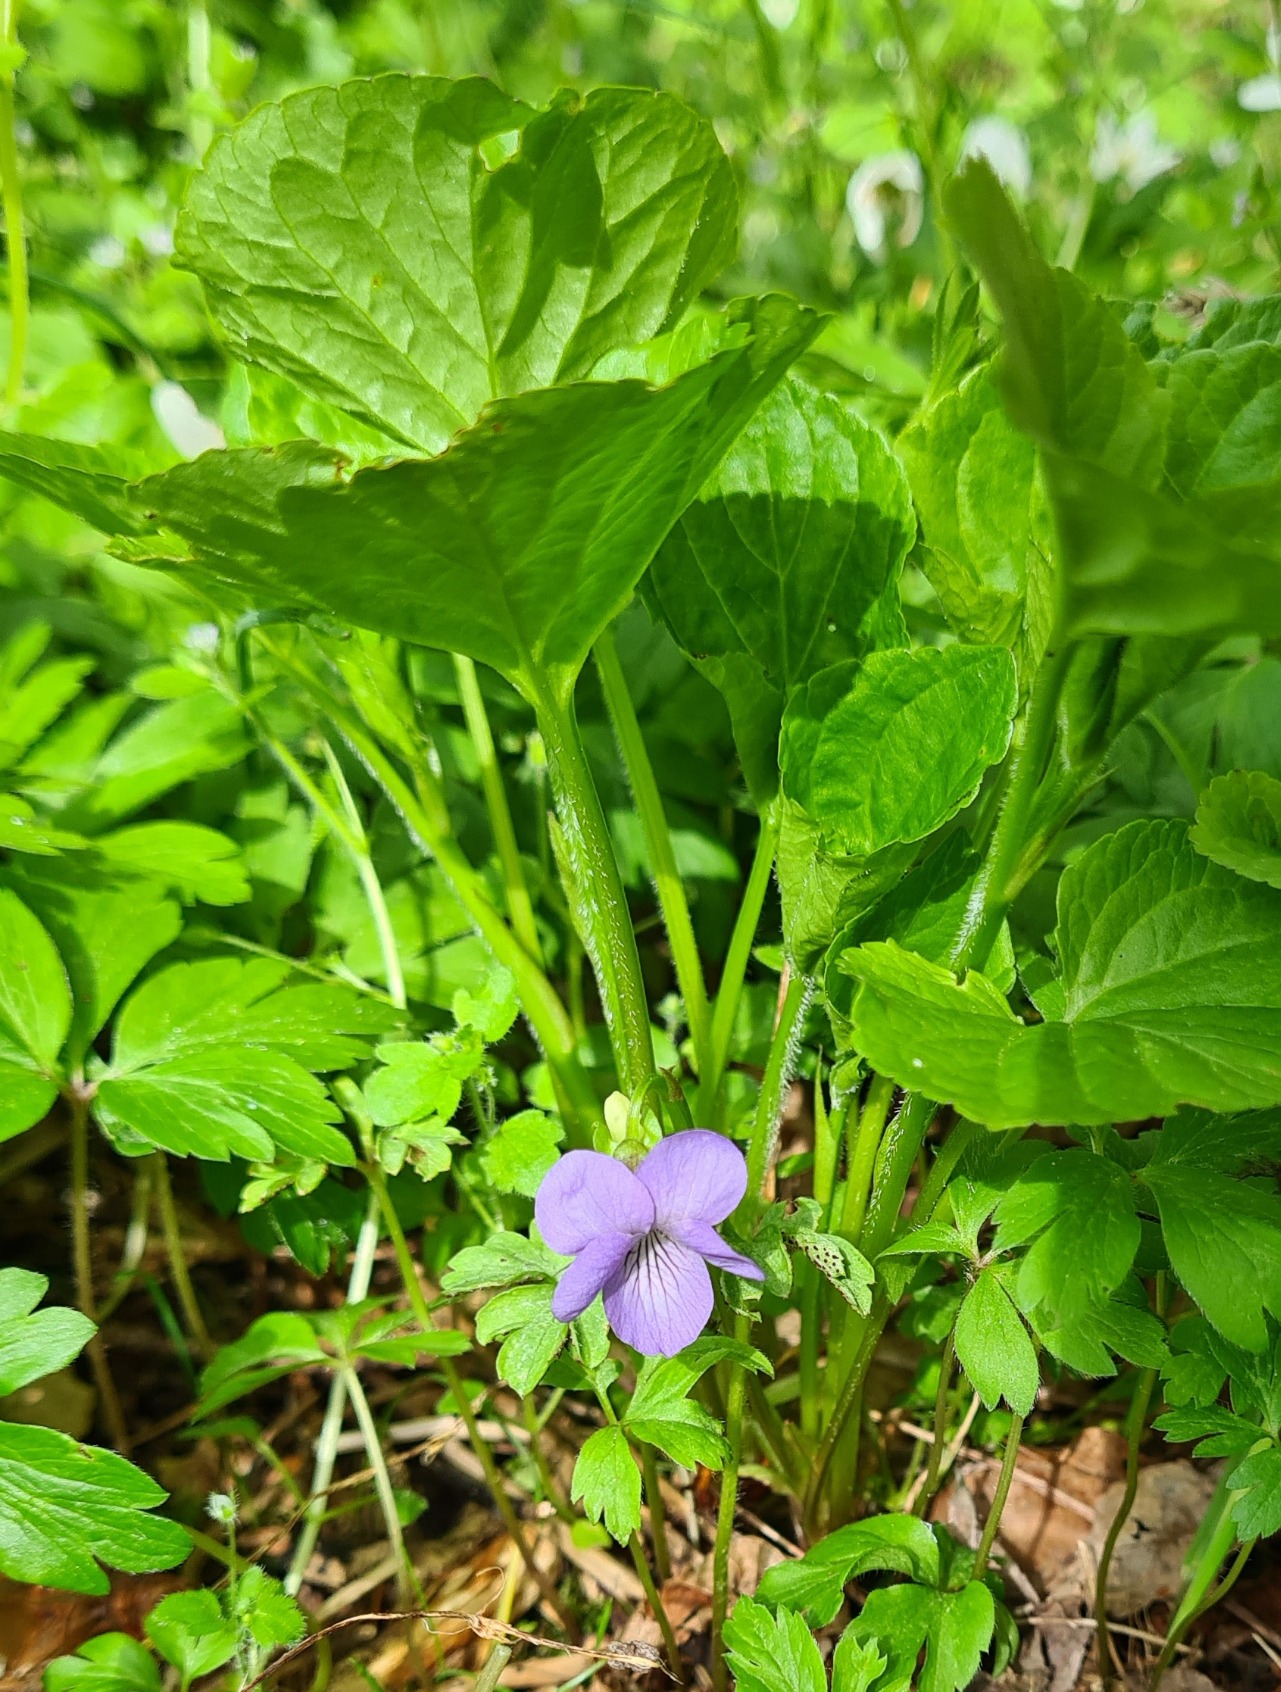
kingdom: Plantae
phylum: Tracheophyta
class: Magnoliopsida
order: Malpighiales
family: Violaceae
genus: Viola
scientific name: Viola mirabilis
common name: Forskelligblomstret viol
